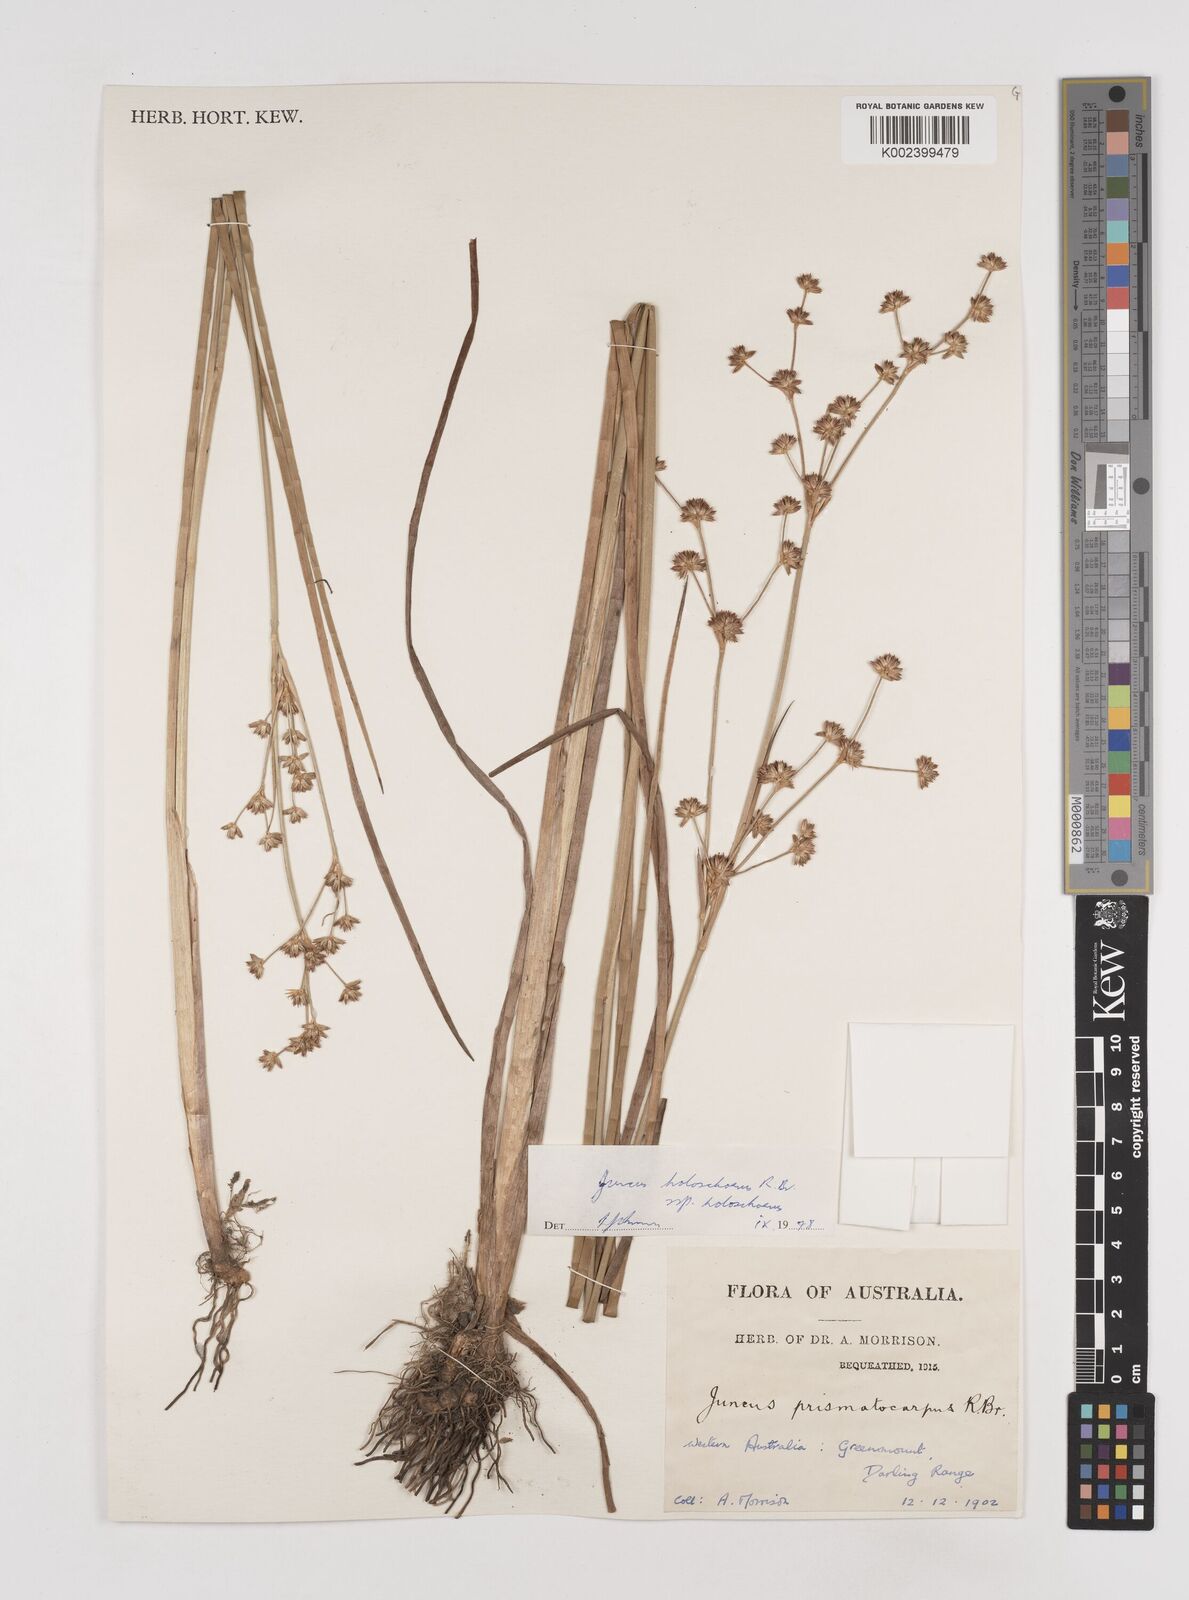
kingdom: Plantae
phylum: Tracheophyta
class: Liliopsida
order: Poales
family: Juncaceae
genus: Juncus
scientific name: Juncus holoschoenus
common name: Joint-leaf rush
